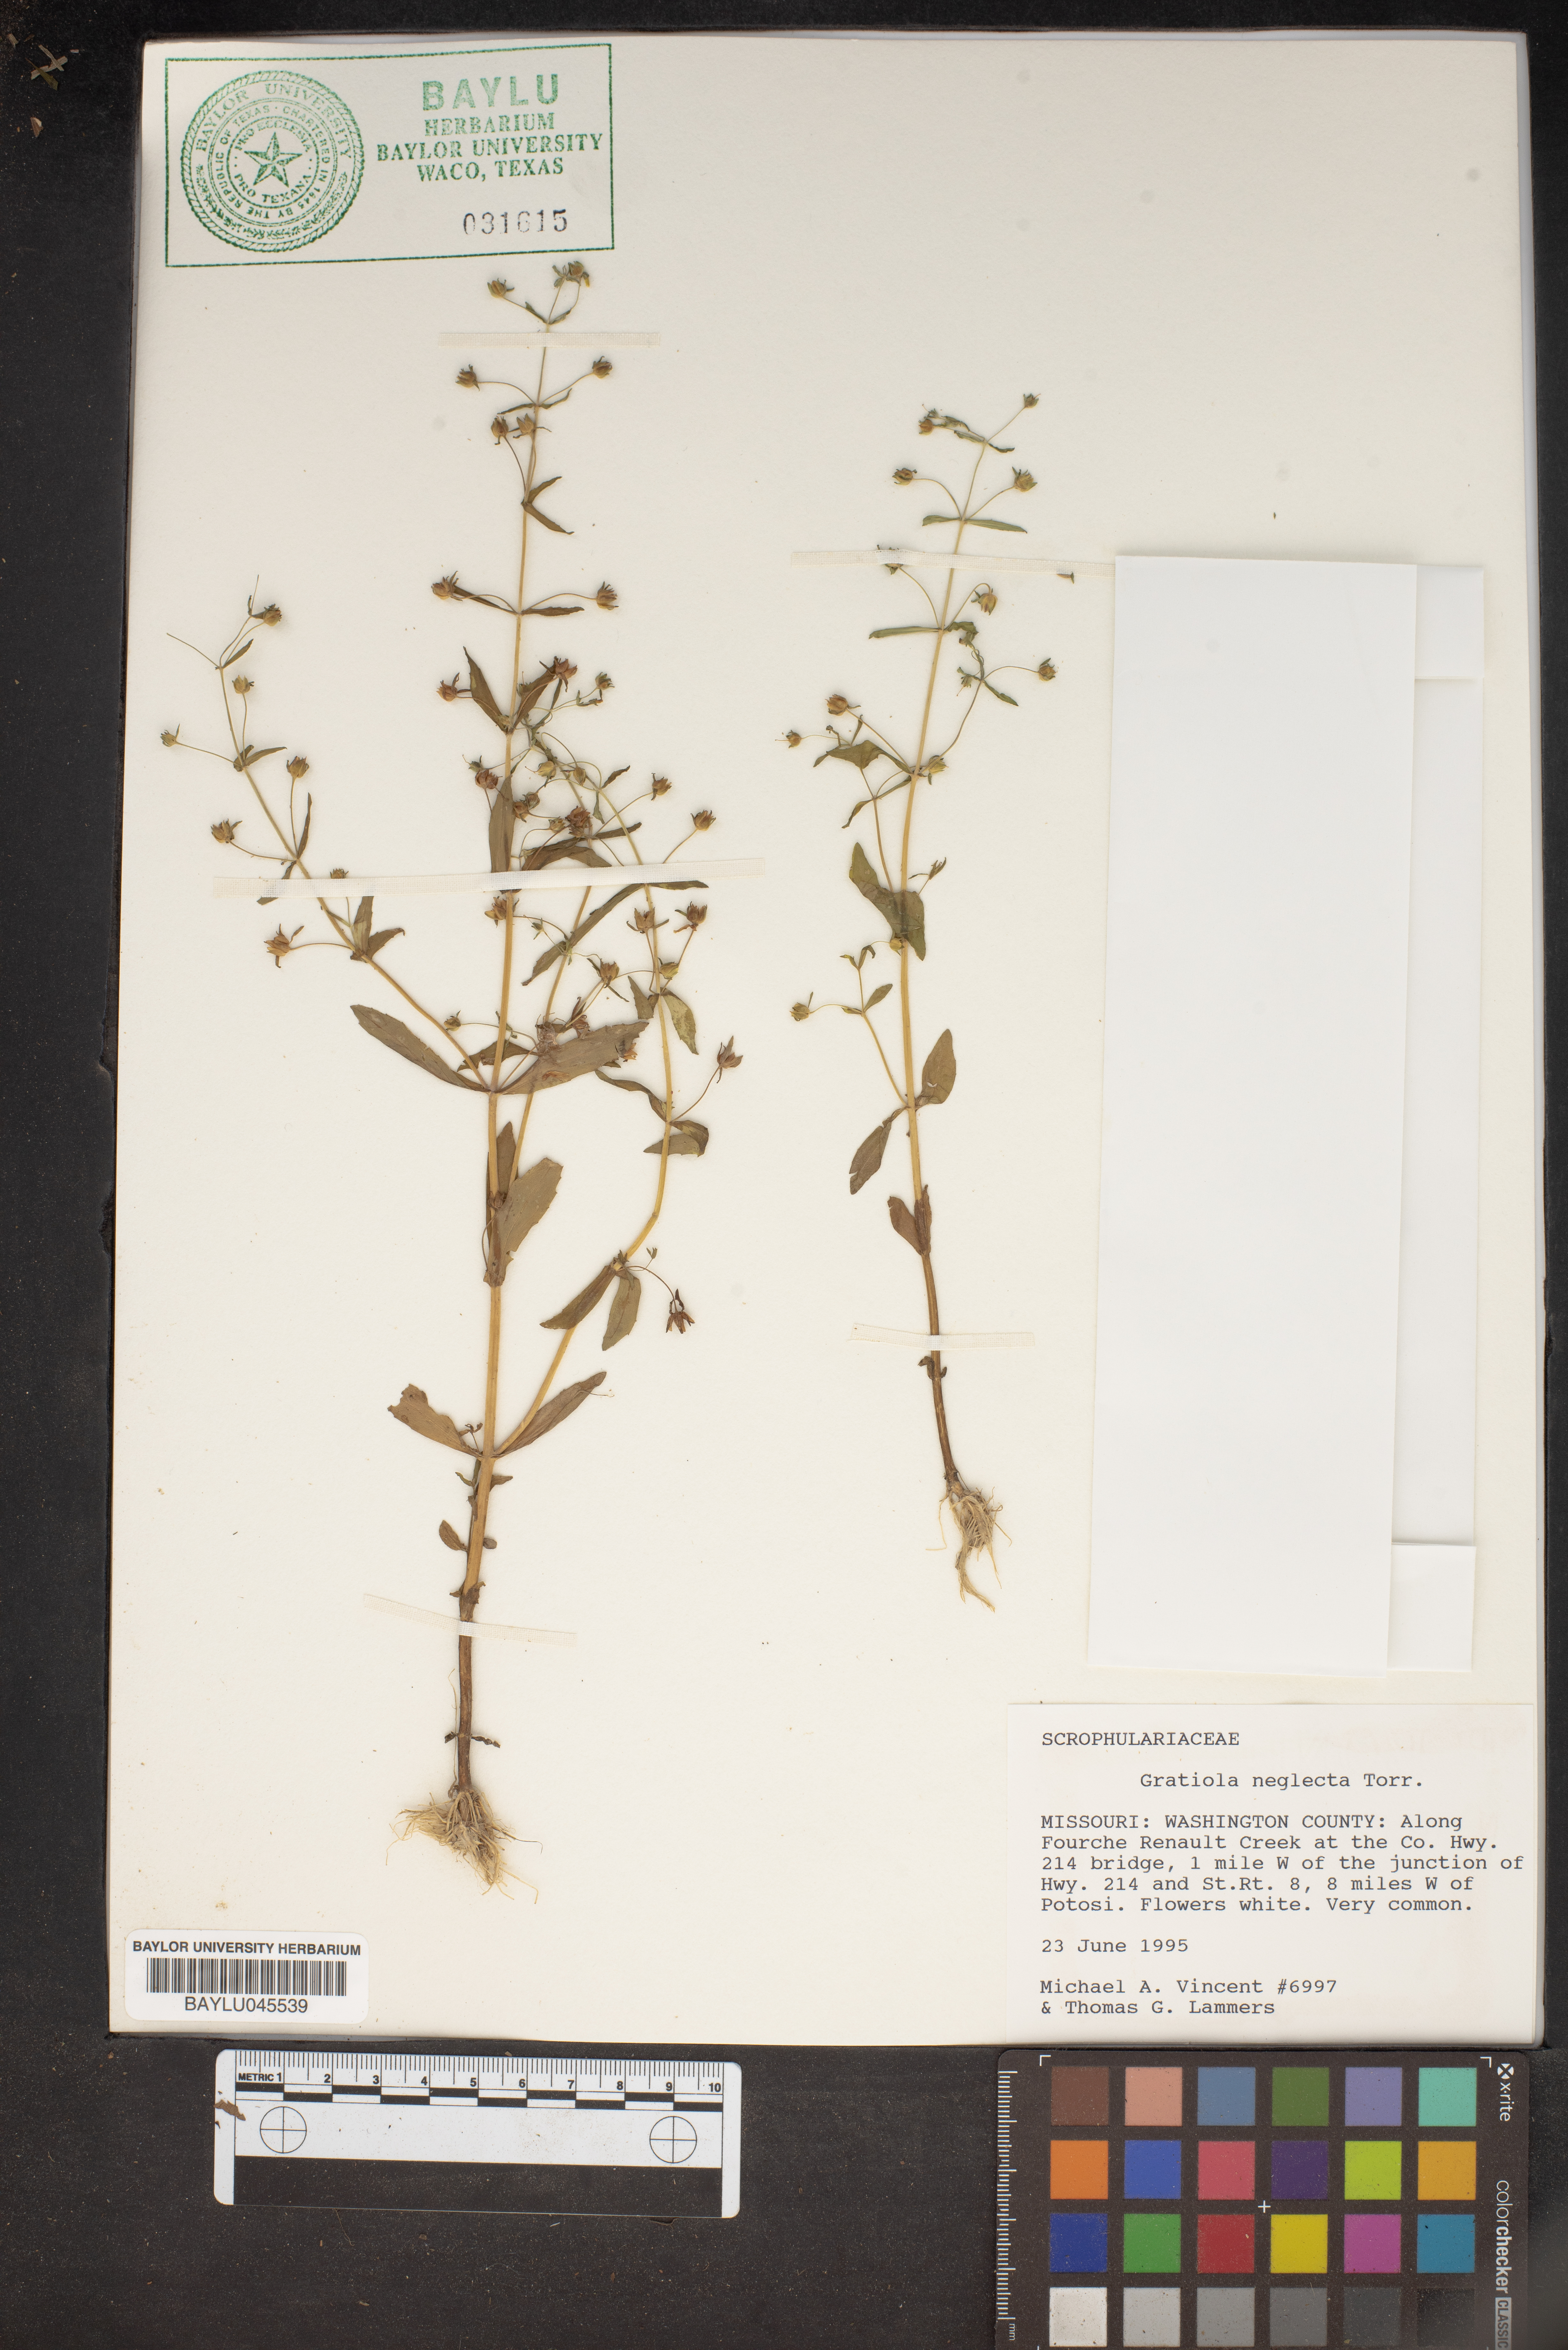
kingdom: Plantae
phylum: Tracheophyta
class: Magnoliopsida
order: Lamiales
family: Plantaginaceae
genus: Gratiola
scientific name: Gratiola neglecta
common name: American hedge-hyssop
